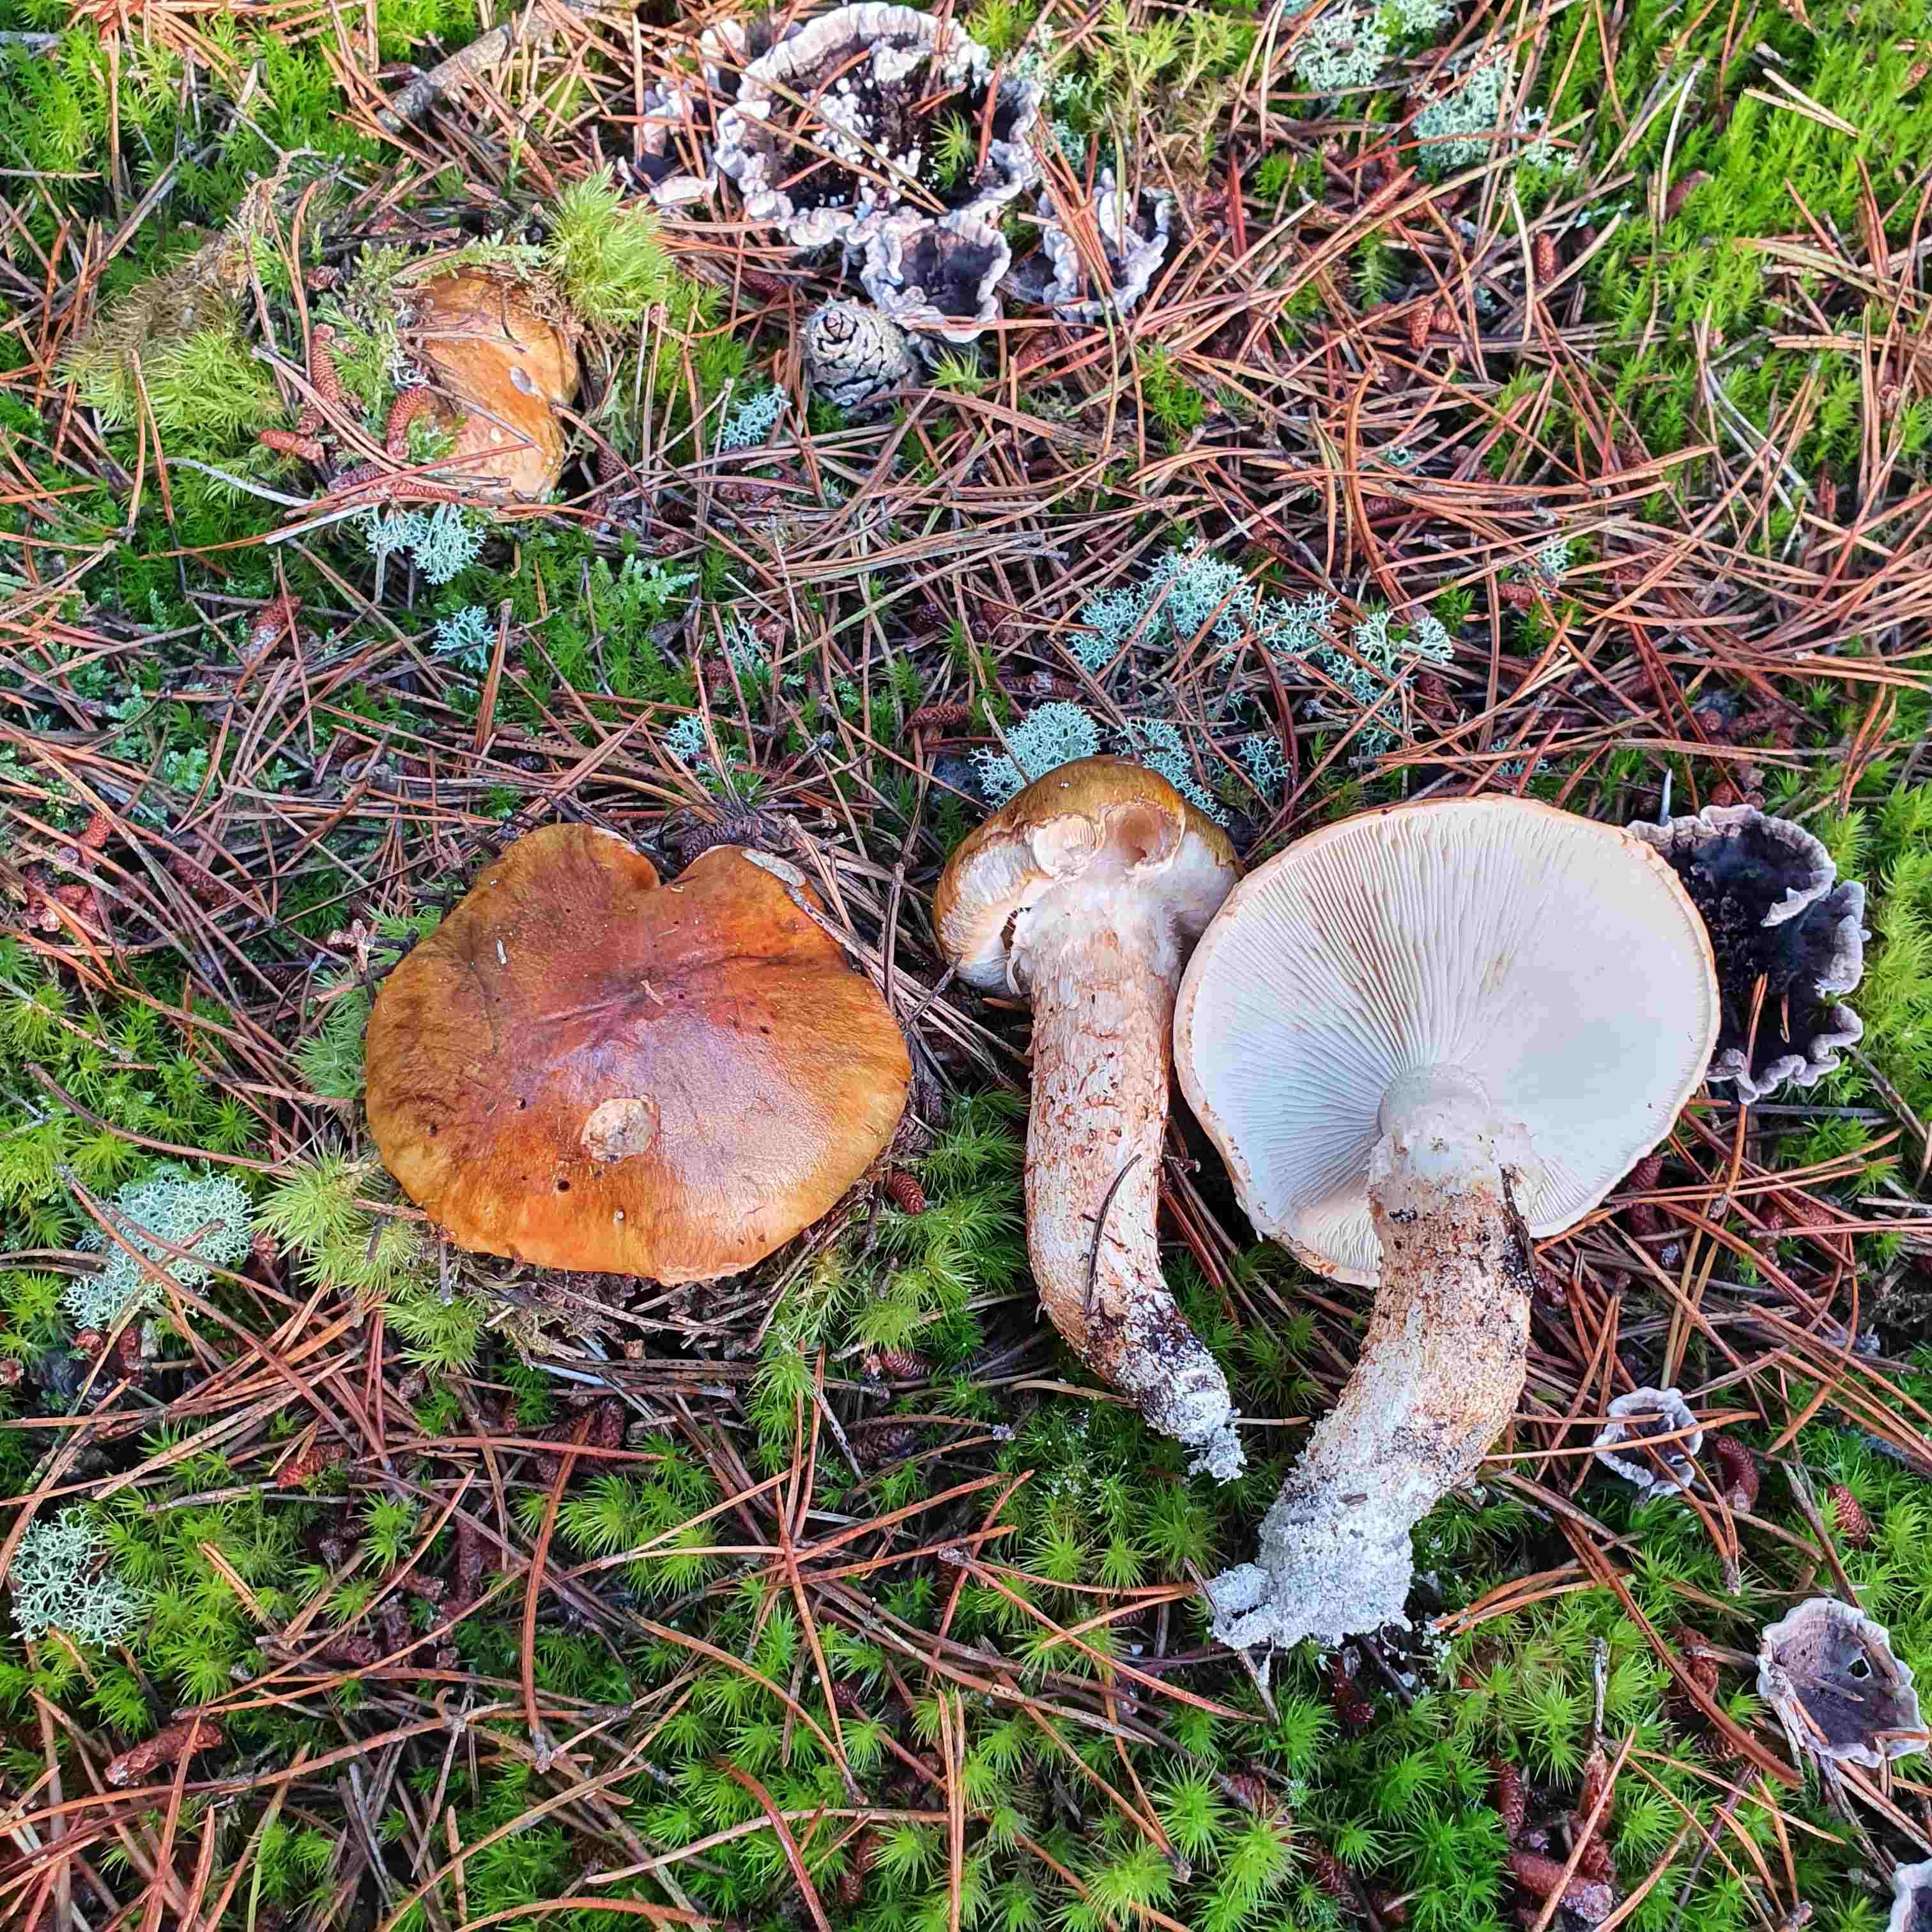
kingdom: Fungi
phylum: Basidiomycota
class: Agaricomycetes
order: Agaricales
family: Tricholomataceae
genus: Tricholoma
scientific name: Tricholoma focale
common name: halsbånd-ridderhat
